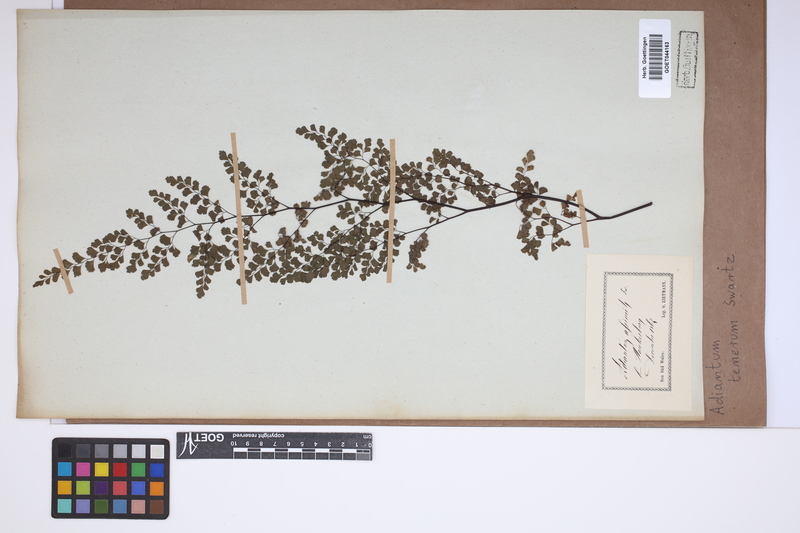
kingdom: Plantae
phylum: Tracheophyta
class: Polypodiopsida
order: Polypodiales
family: Pteridaceae
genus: Adiantum
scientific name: Adiantum tenerum
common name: Fan maidenhair
